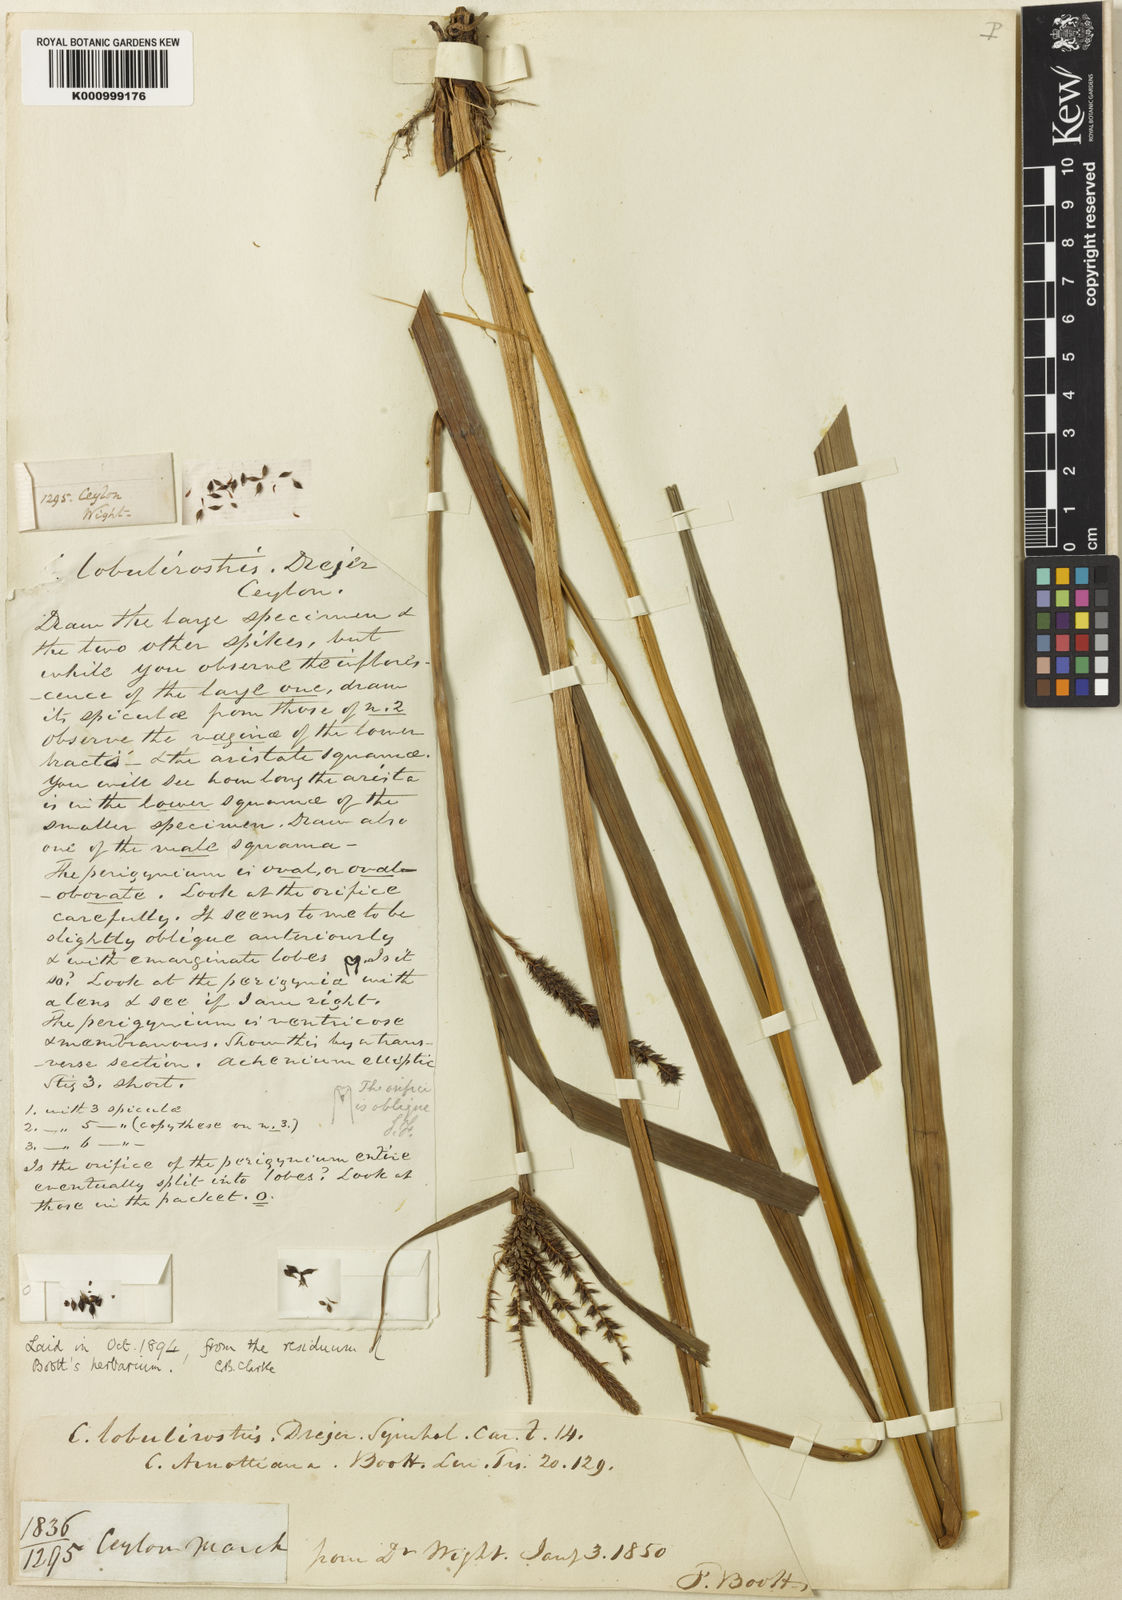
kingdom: Plantae
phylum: Tracheophyta
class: Liliopsida
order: Poales
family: Cyperaceae
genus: Carex
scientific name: Carex lobulirostris
